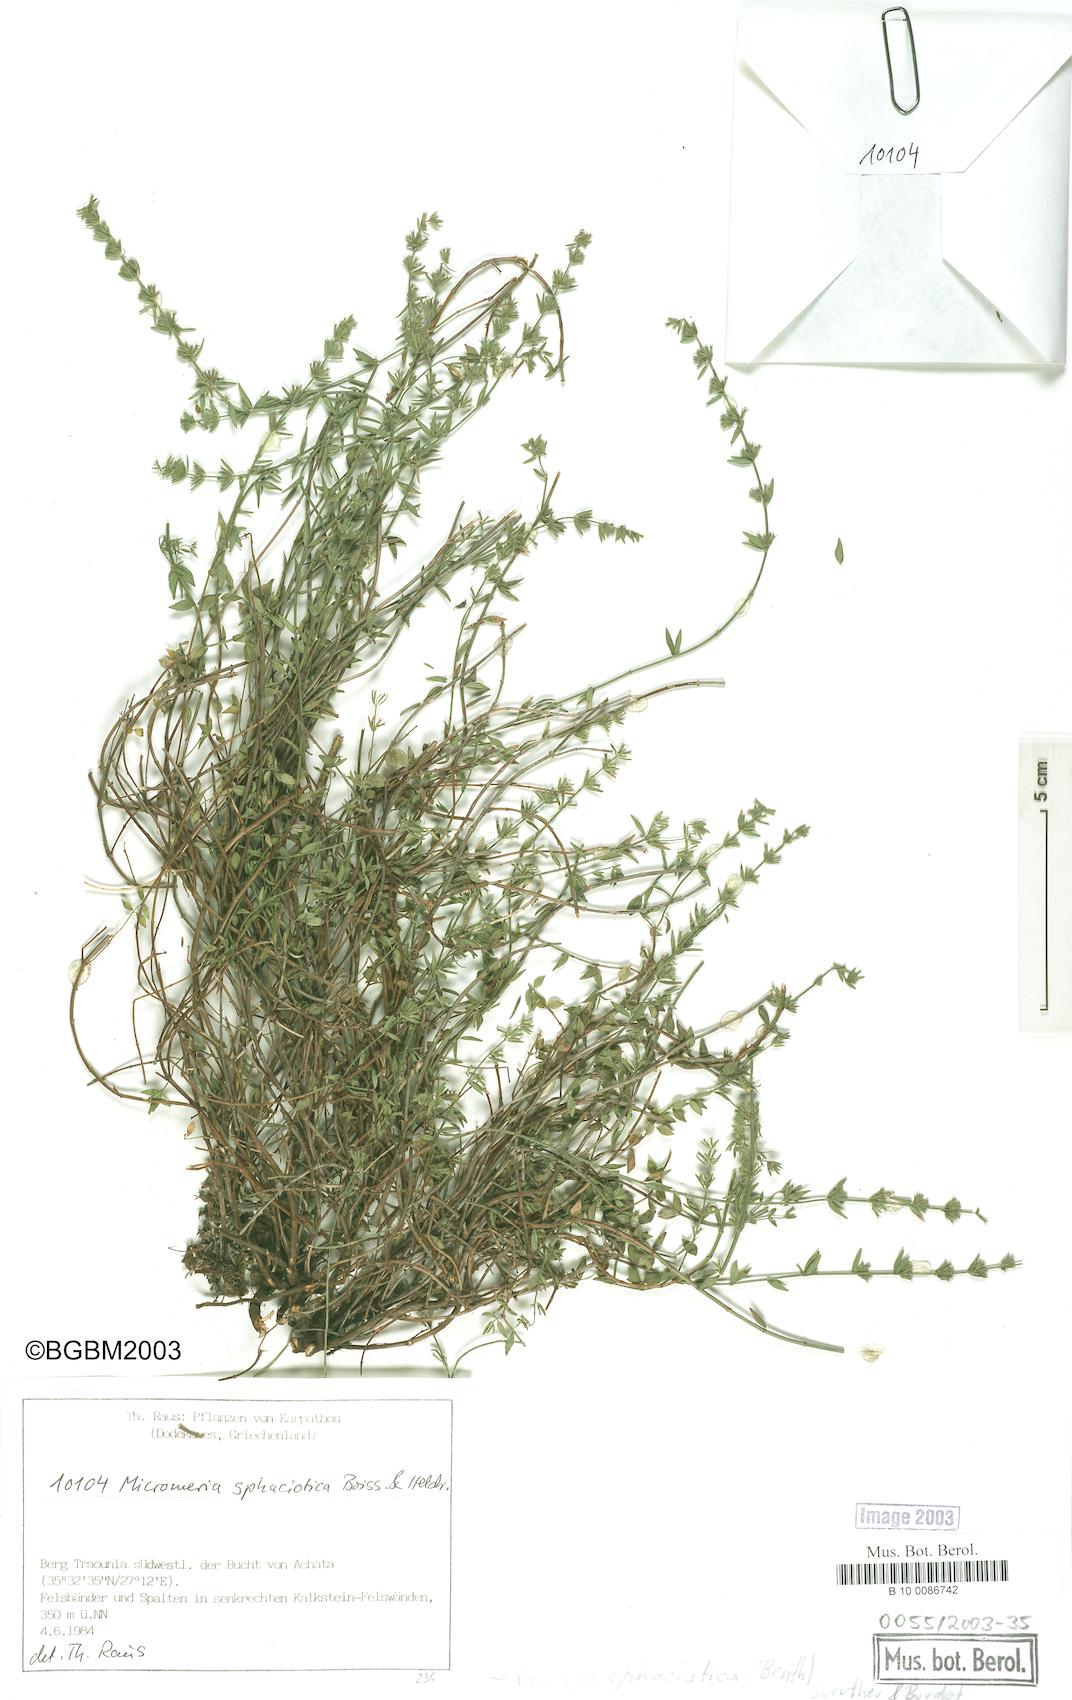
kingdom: Plantae
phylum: Tracheophyta
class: Magnoliopsida
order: Lamiales
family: Lamiaceae
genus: Micromeria
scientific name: Micromeria sphaciotica
